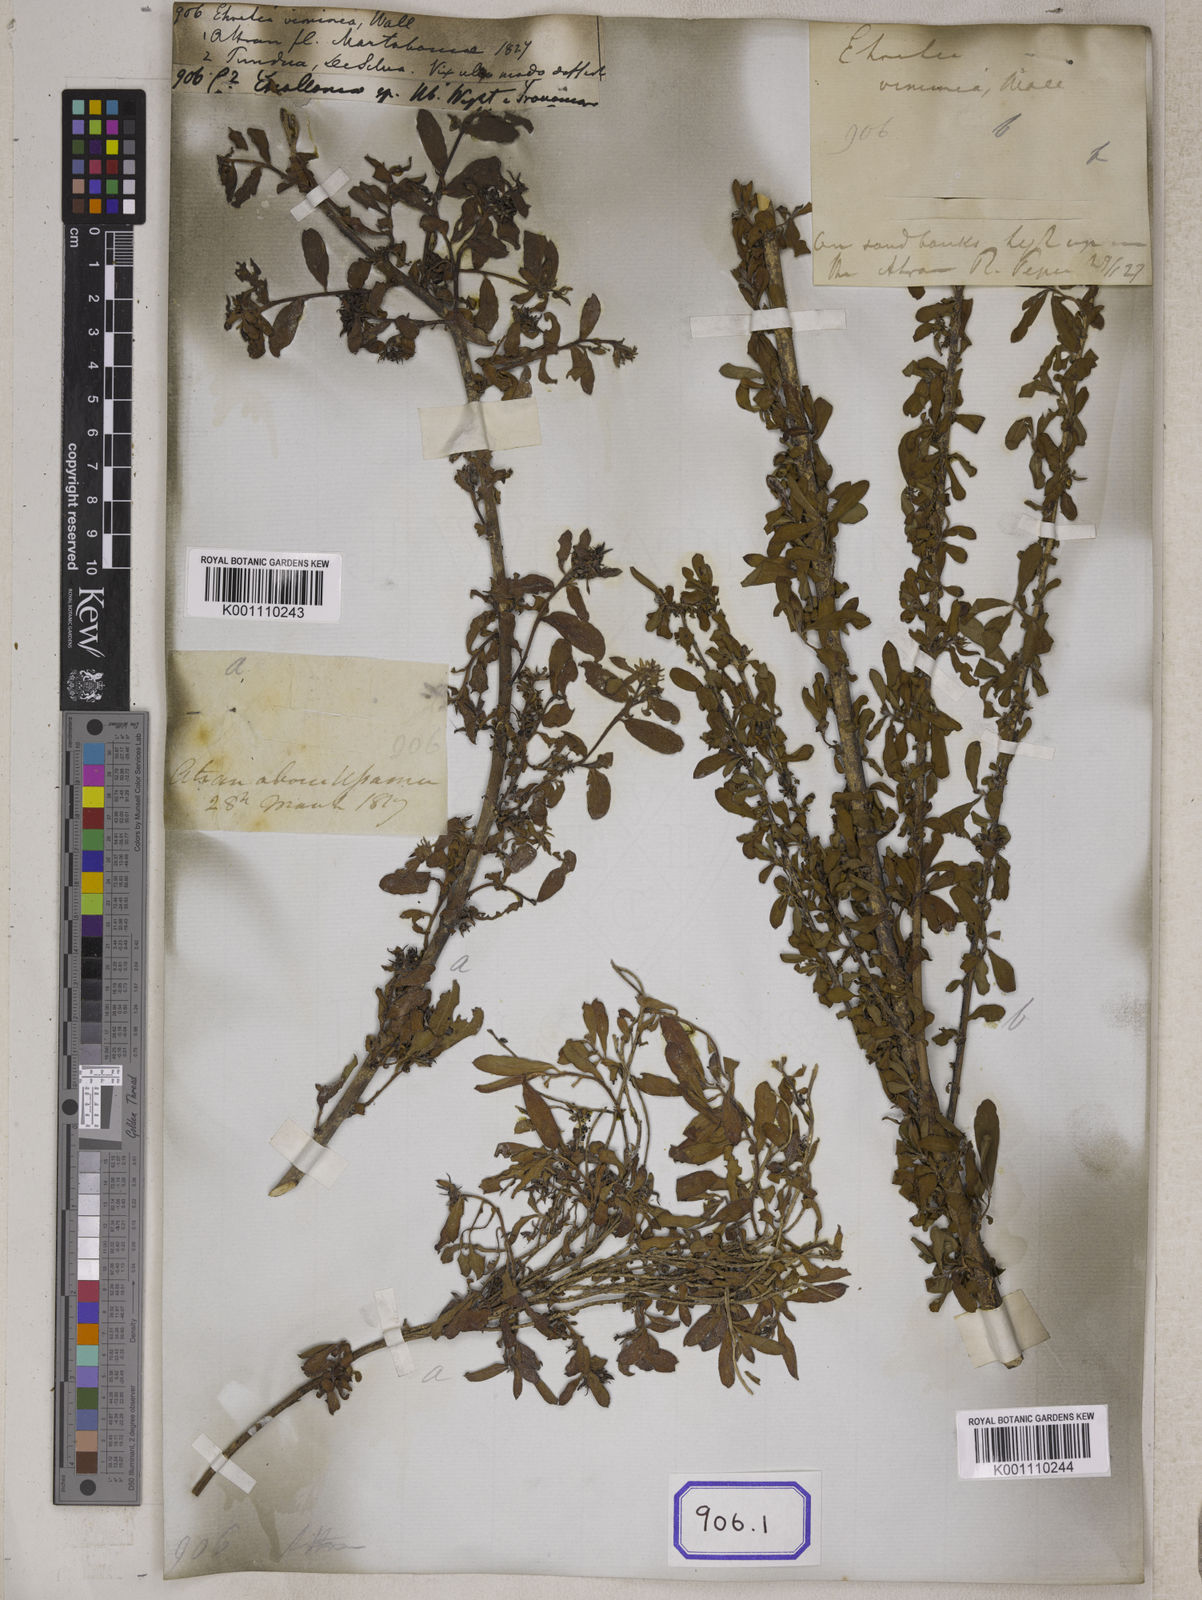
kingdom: Plantae
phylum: Tracheophyta
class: Magnoliopsida
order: Boraginales
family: Ehretiaceae
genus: Ehretia
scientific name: Ehretia
